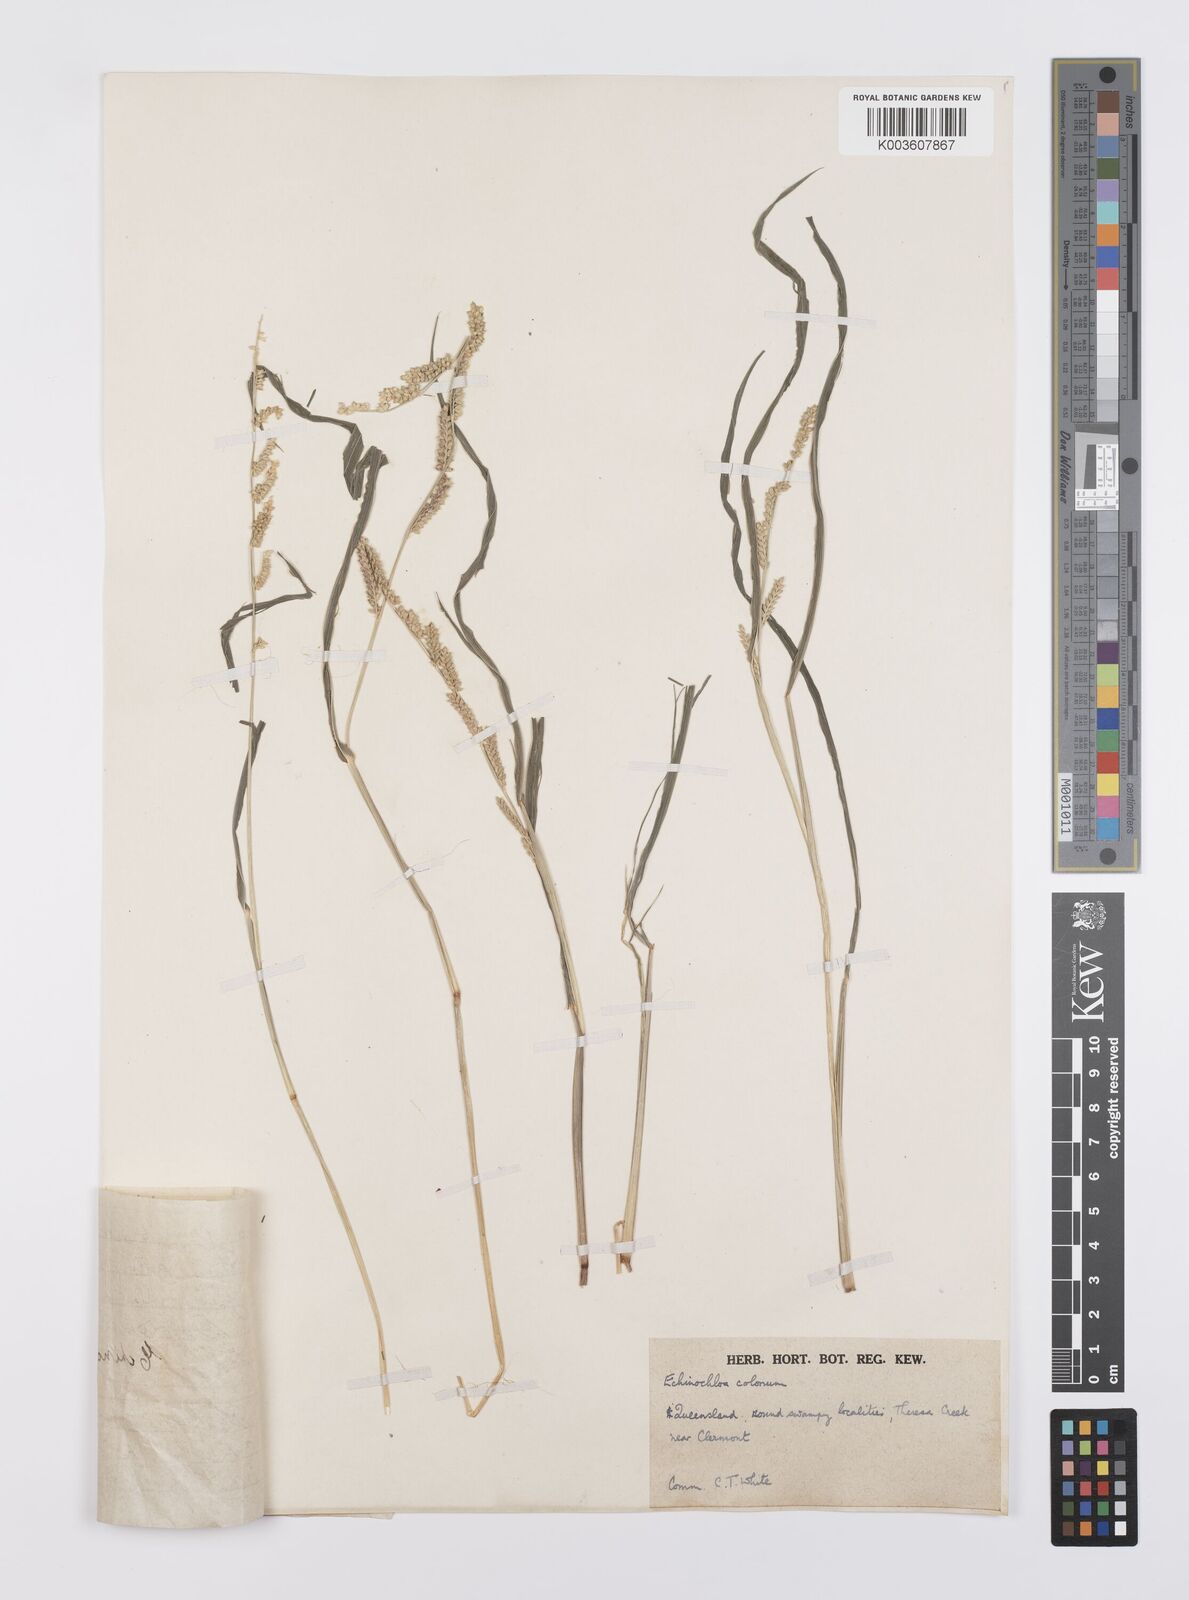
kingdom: Plantae
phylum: Tracheophyta
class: Liliopsida
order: Poales
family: Poaceae
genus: Echinochloa
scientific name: Echinochloa colonum
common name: Jungle rice
